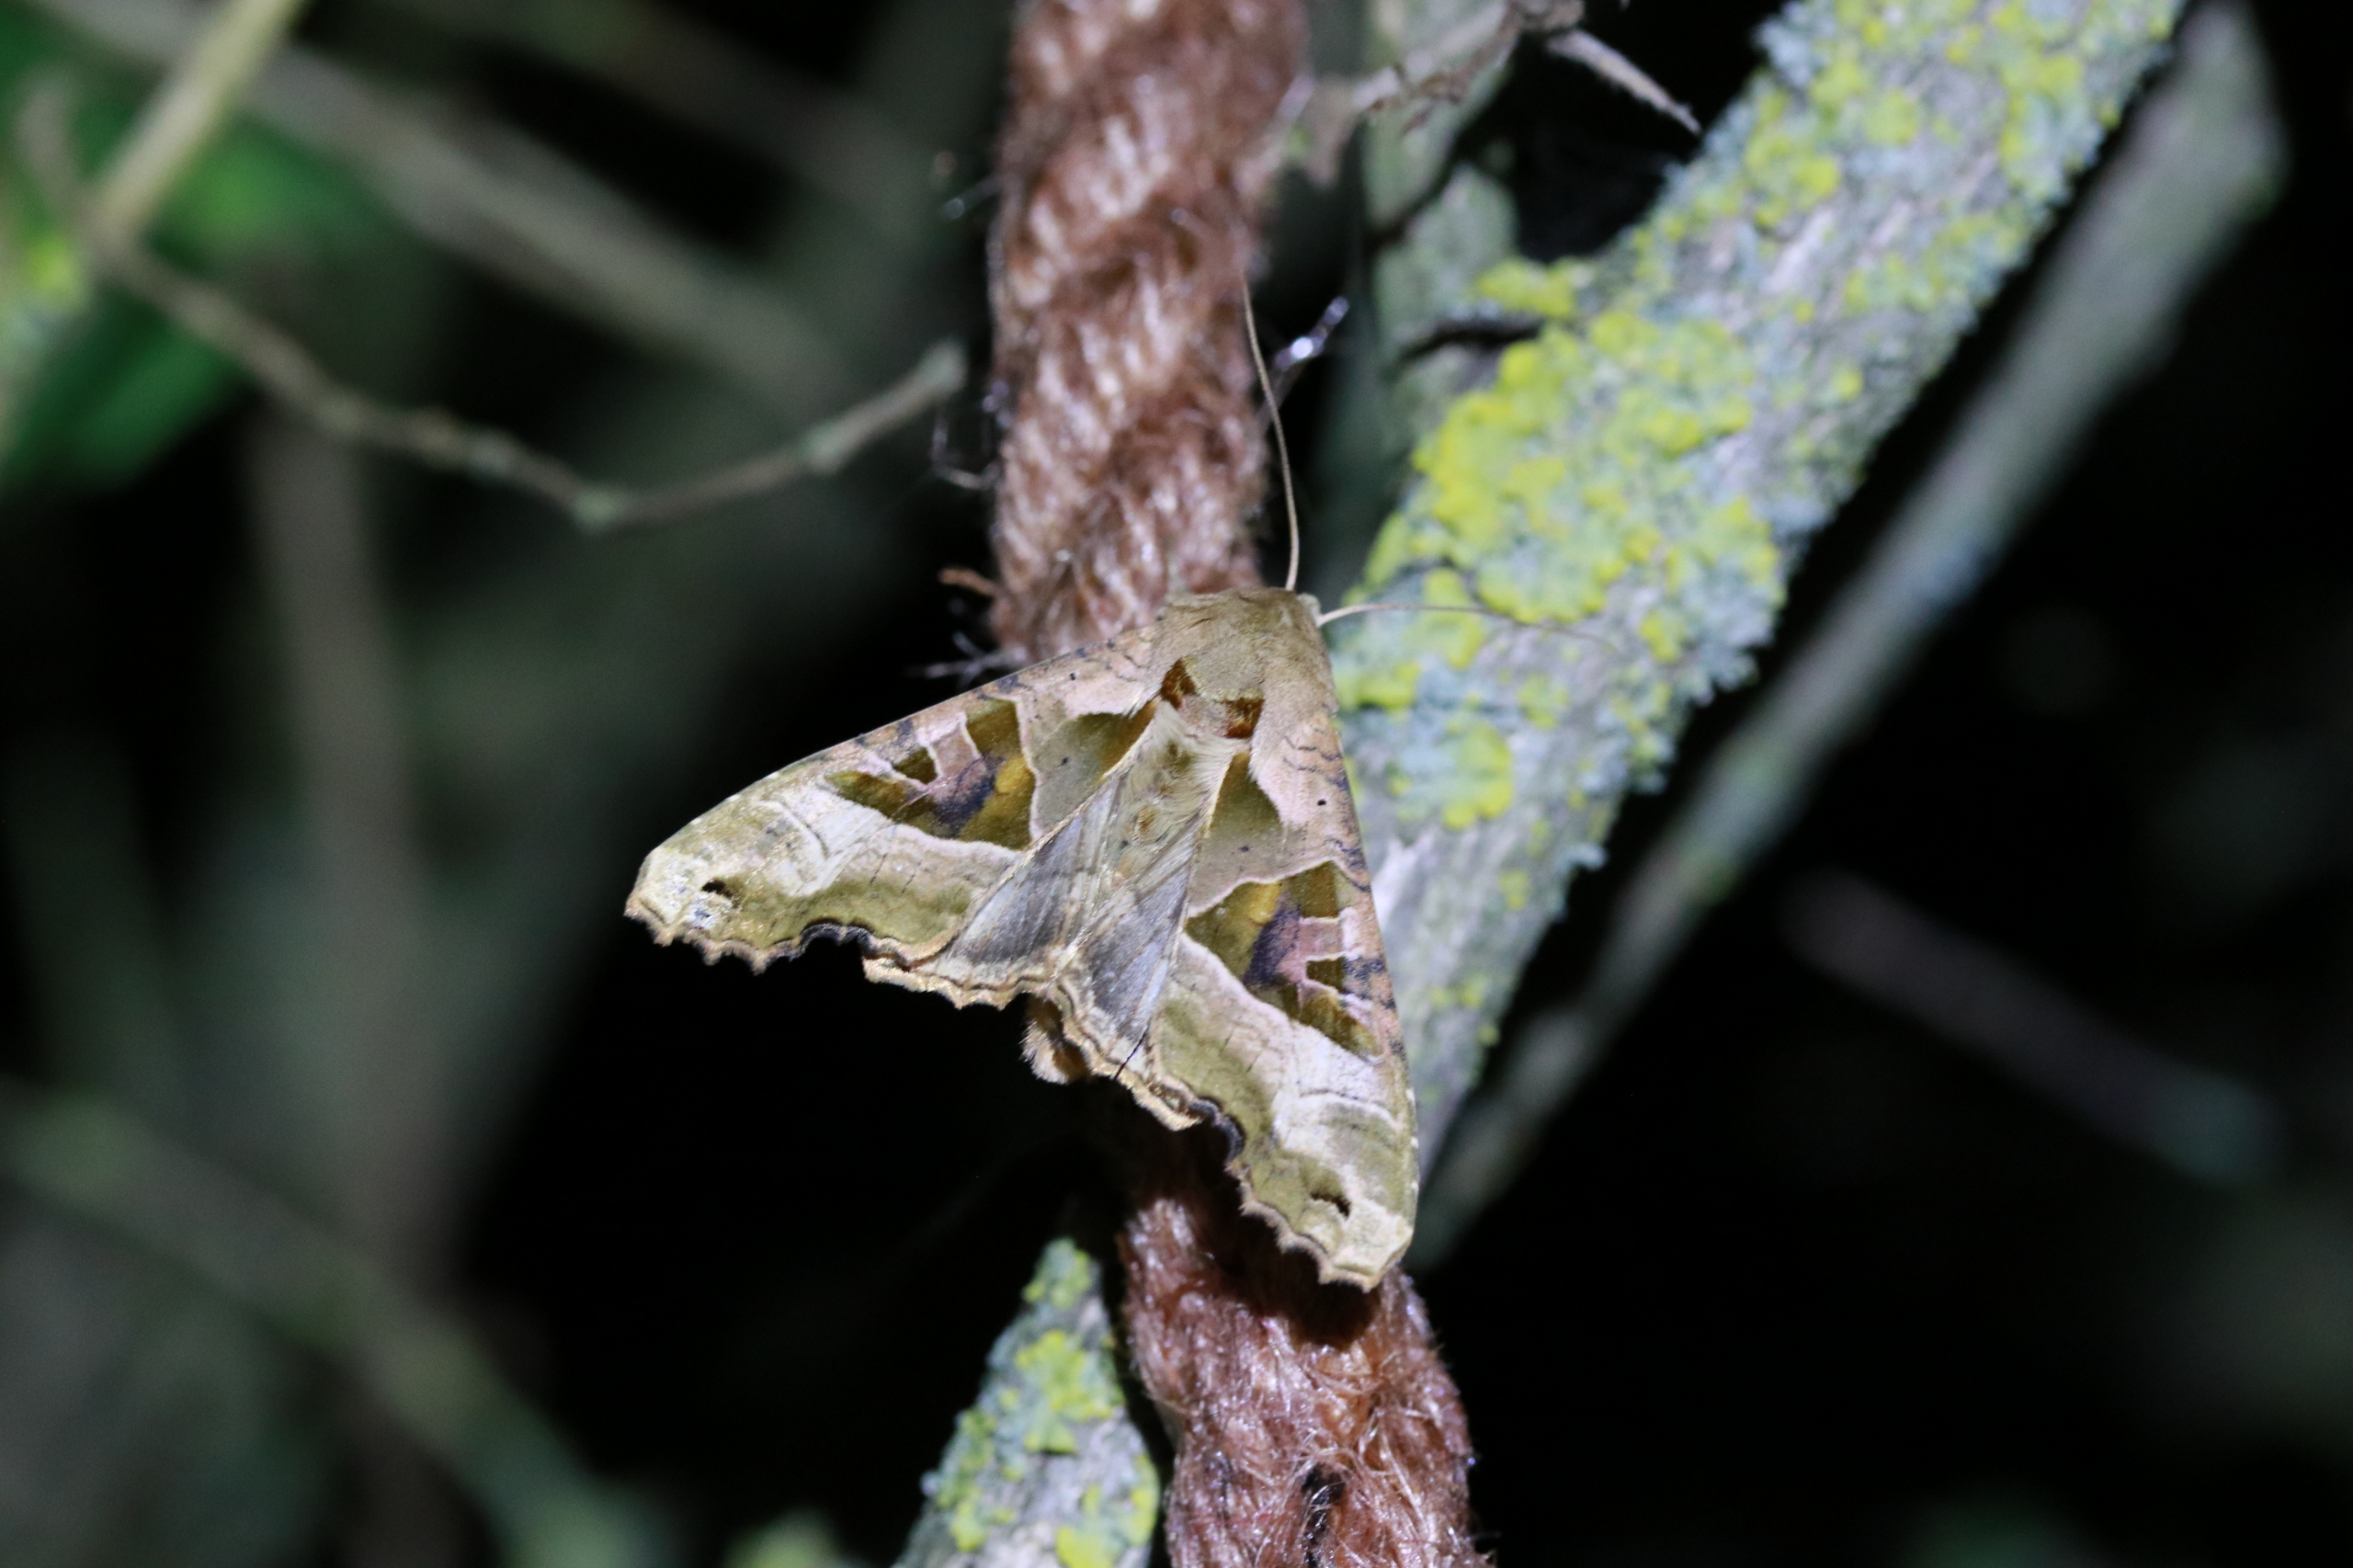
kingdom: Animalia
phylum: Arthropoda
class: Insecta
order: Lepidoptera
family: Noctuidae
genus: Phlogophora
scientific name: Phlogophora meticulosa
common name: Agatugle
